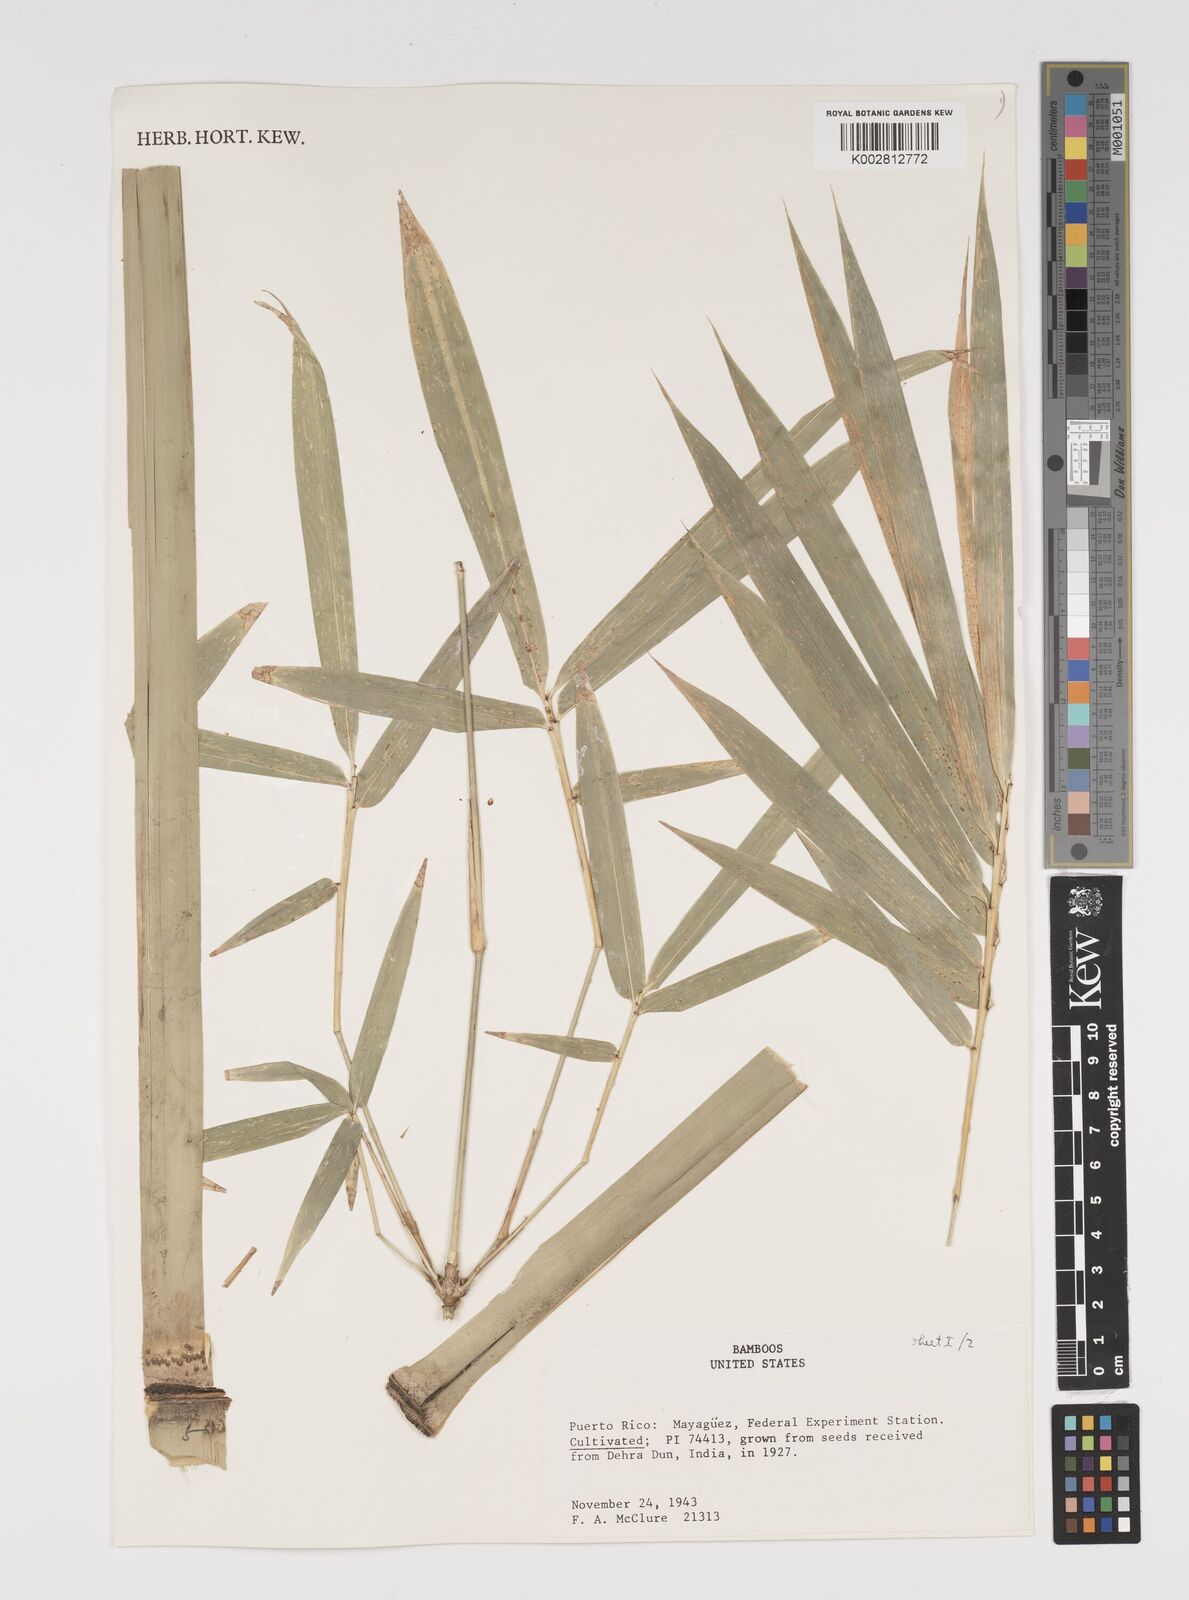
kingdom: Plantae
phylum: Tracheophyta
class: Liliopsida
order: Poales
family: Poaceae
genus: Arundinaria
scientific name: Arundinaria
